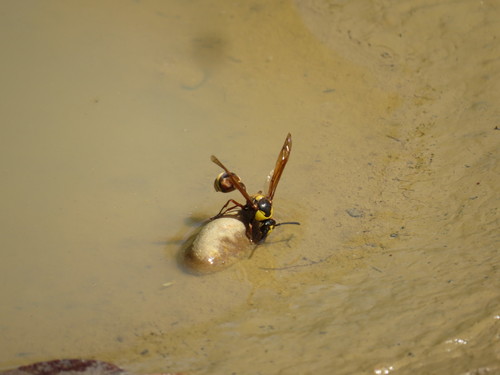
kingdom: Animalia
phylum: Arthropoda
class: Insecta
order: Hymenoptera
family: Eumenidae
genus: Delta
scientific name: Delta unguiculatum
